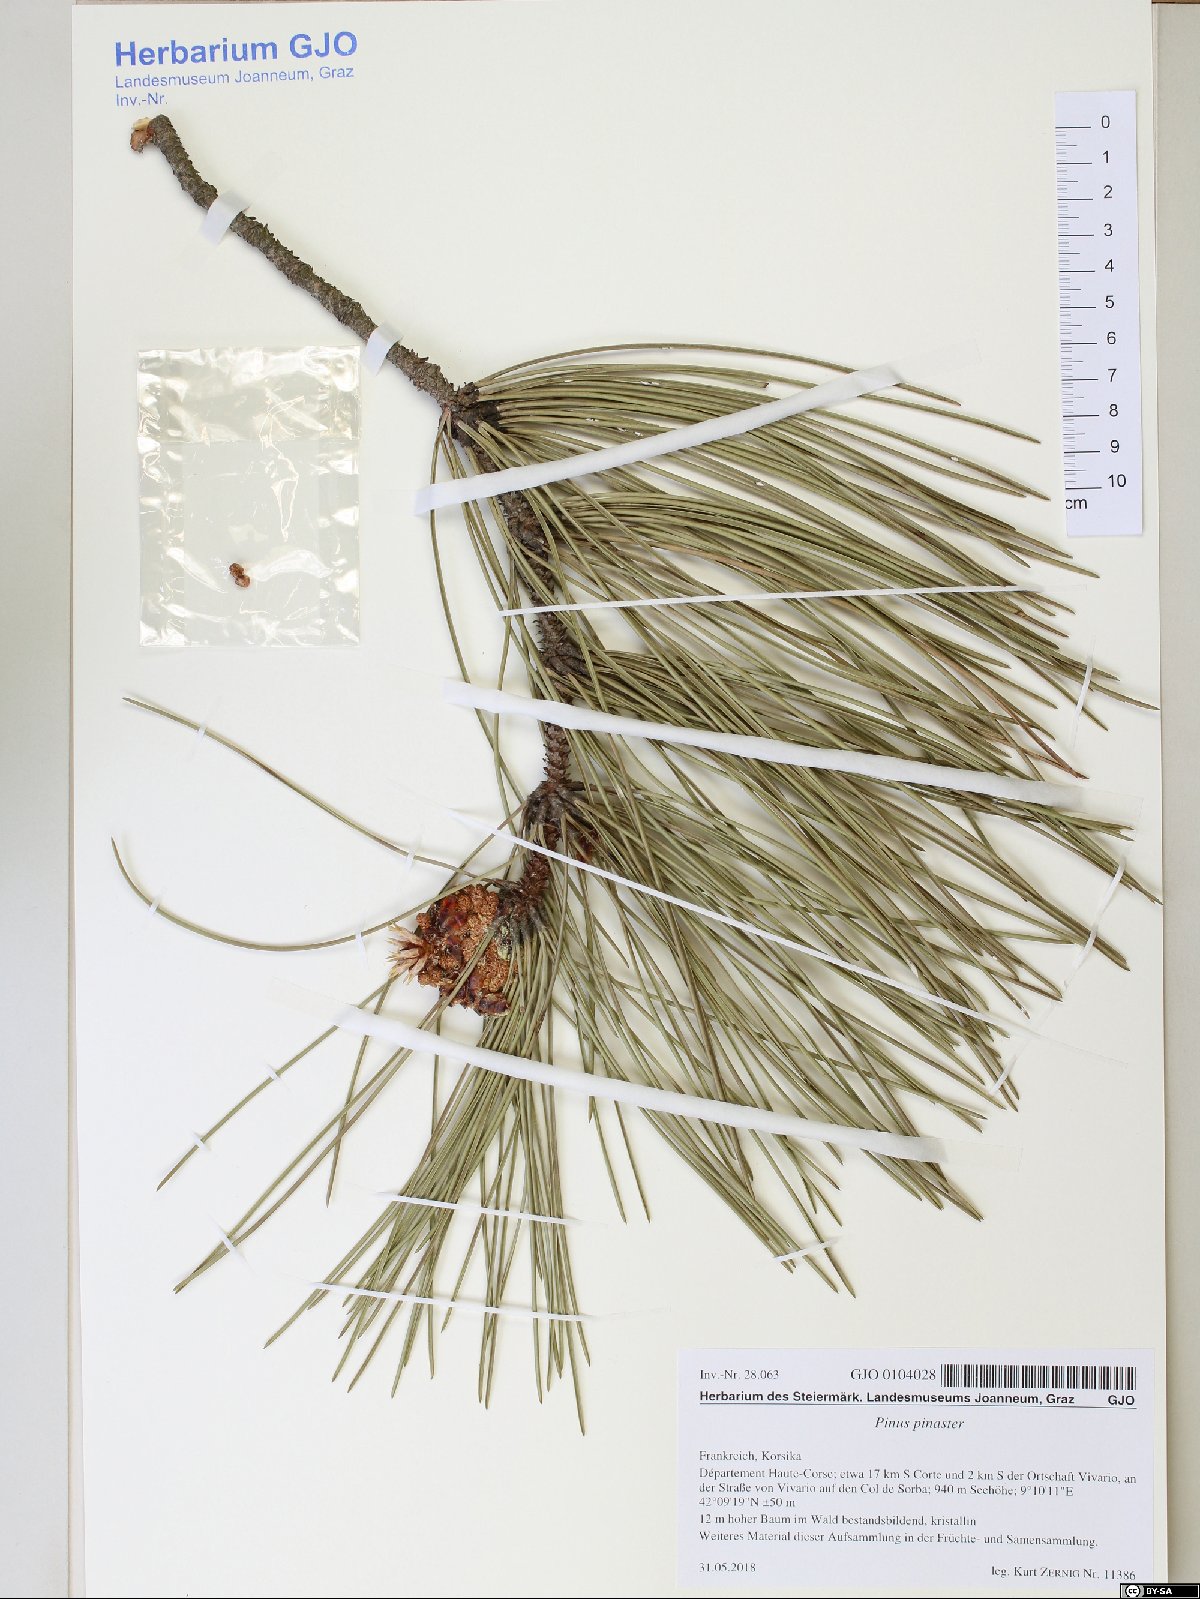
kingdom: Plantae
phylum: Tracheophyta
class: Pinopsida
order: Pinales
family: Pinaceae
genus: Pinus
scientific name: Pinus pinaster
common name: Maritime pine
